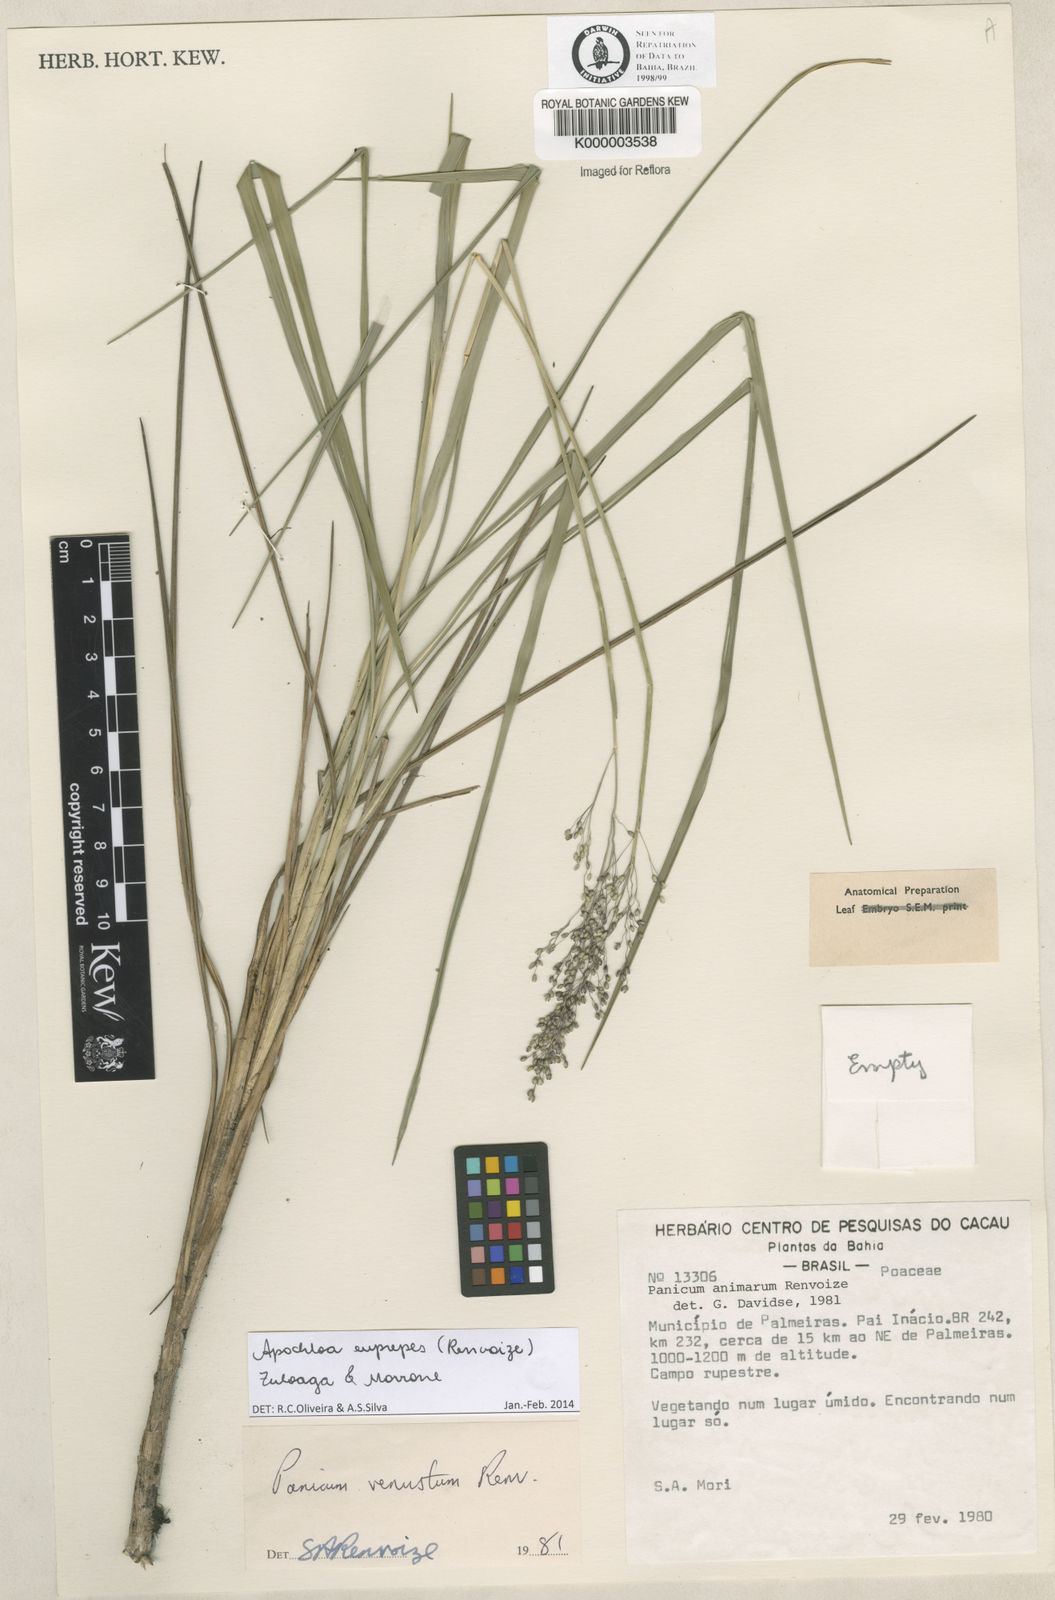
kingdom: Plantae
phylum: Tracheophyta
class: Liliopsida
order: Poales
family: Poaceae
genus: Apochloa
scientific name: Apochloa euprepes
